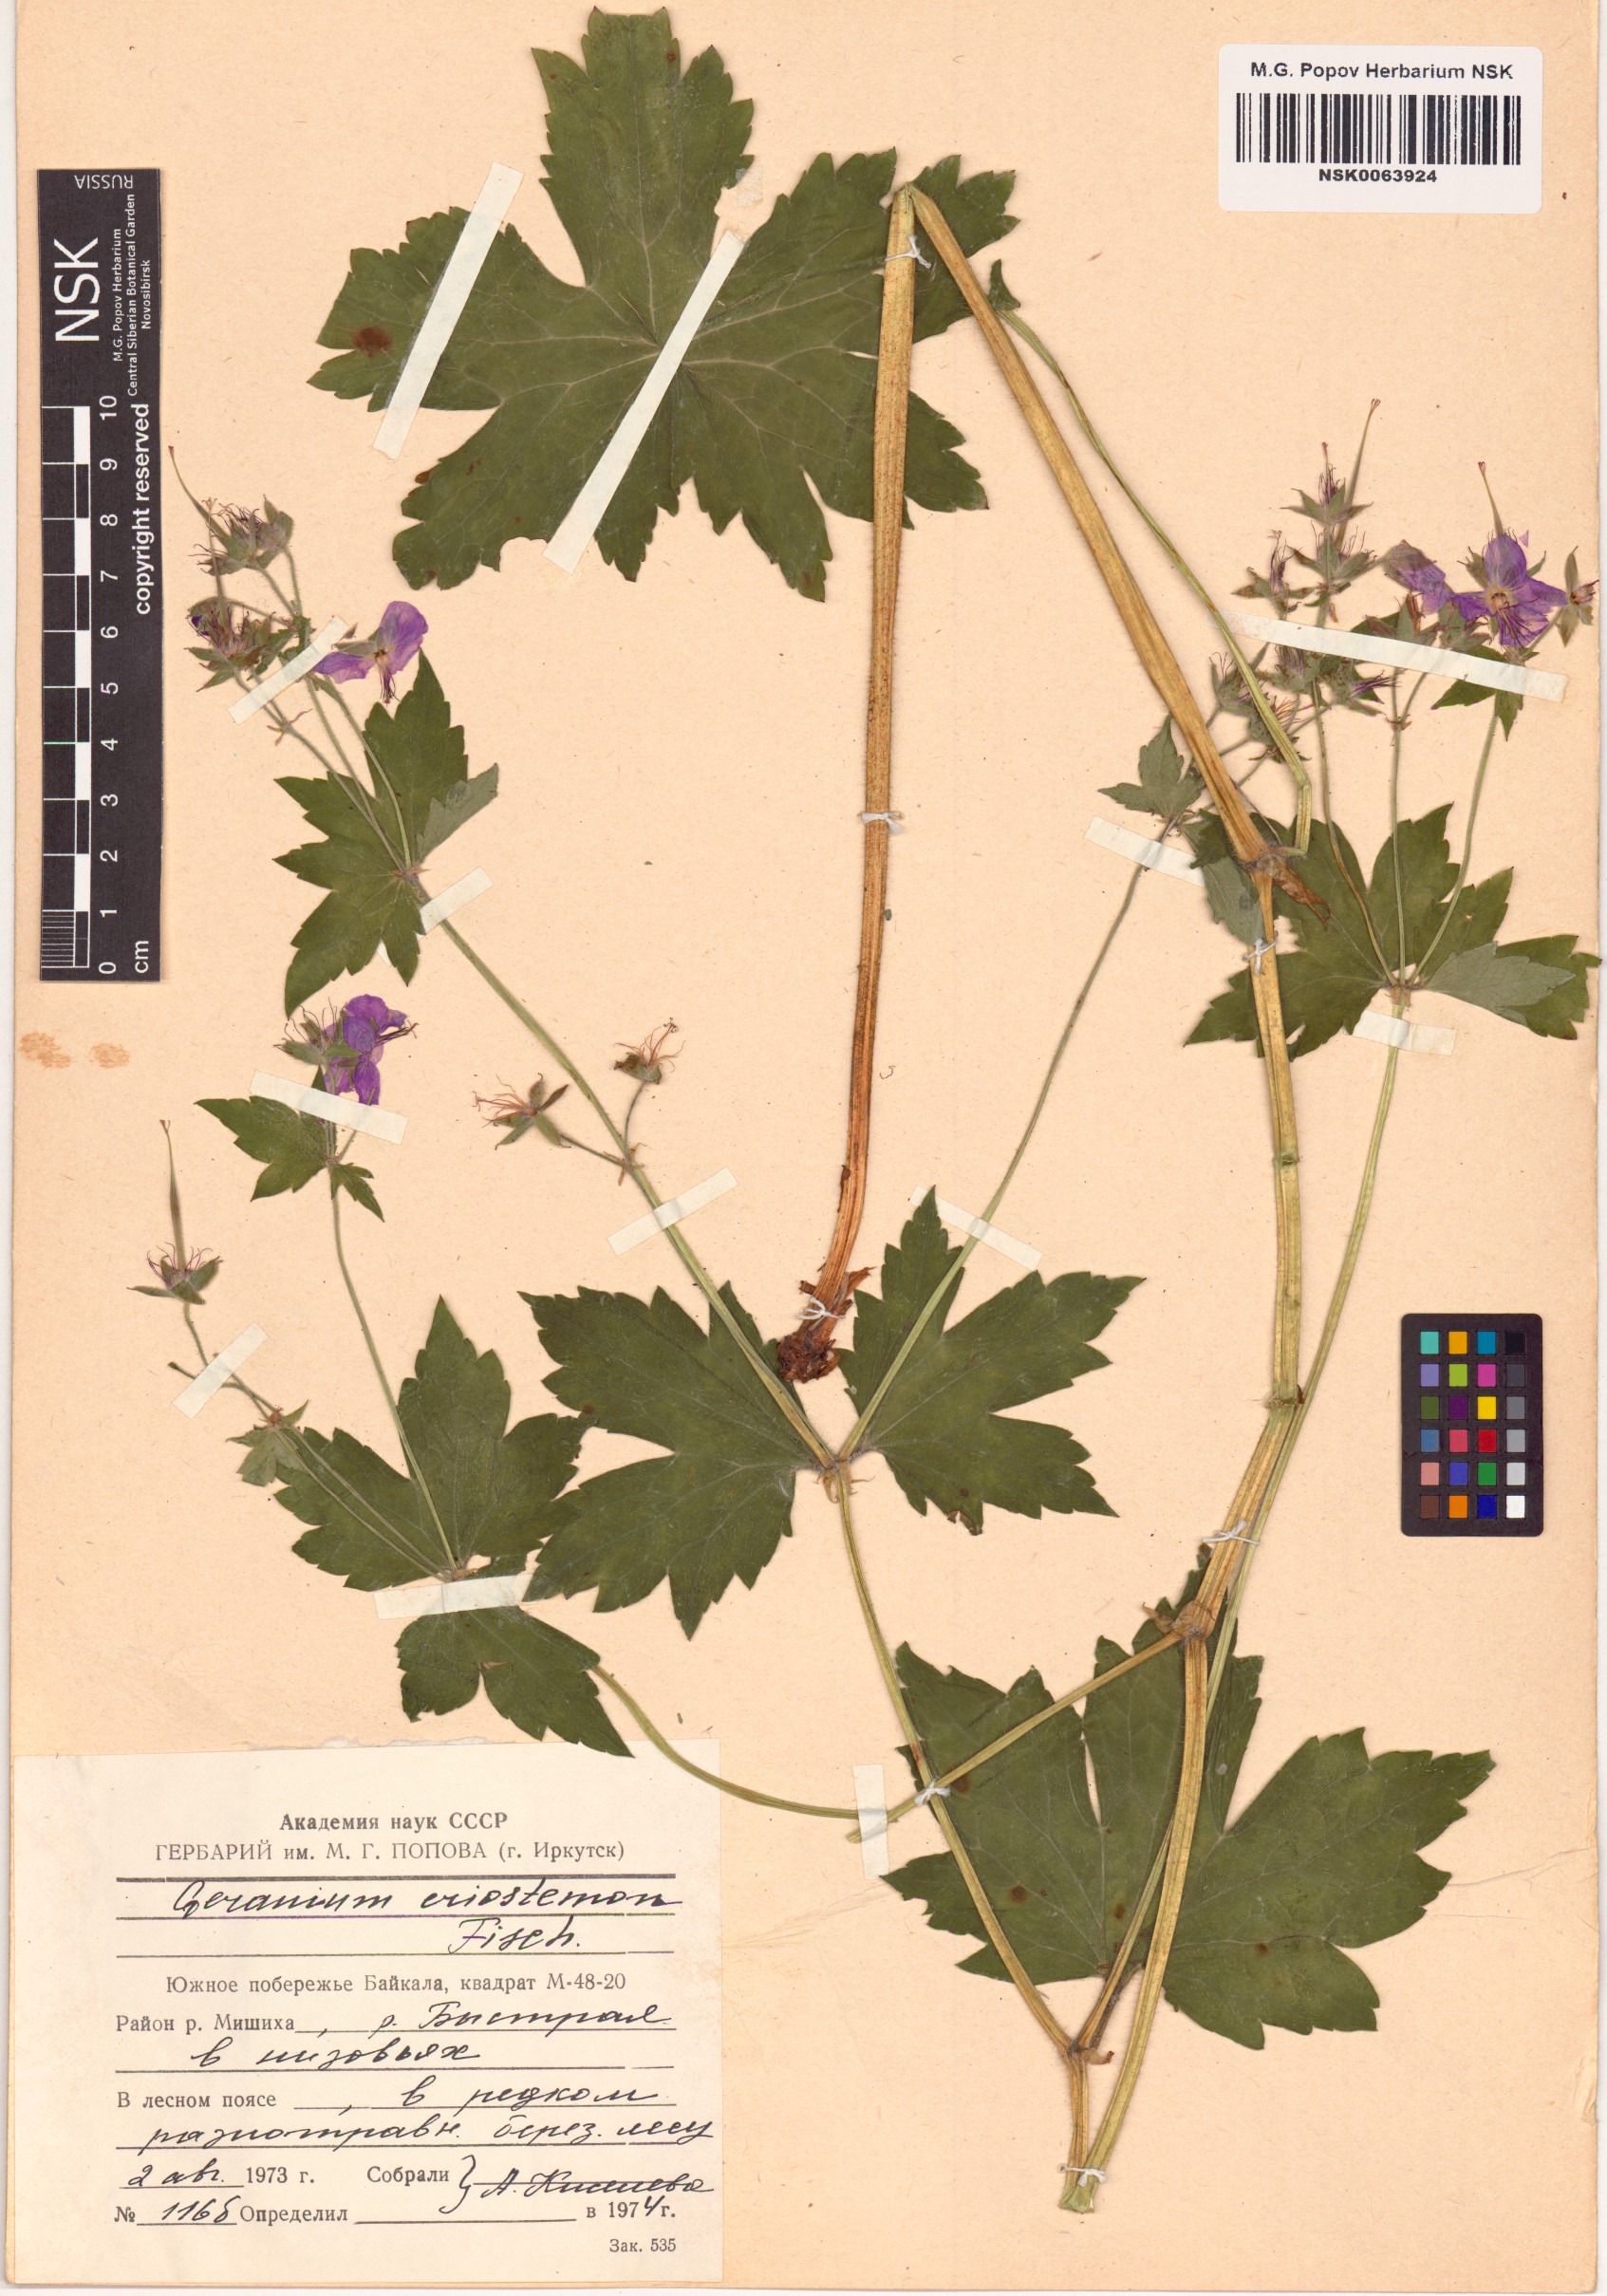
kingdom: Plantae
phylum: Tracheophyta
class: Magnoliopsida
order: Geraniales
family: Geraniaceae
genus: Geranium
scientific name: Geranium platyanthum
